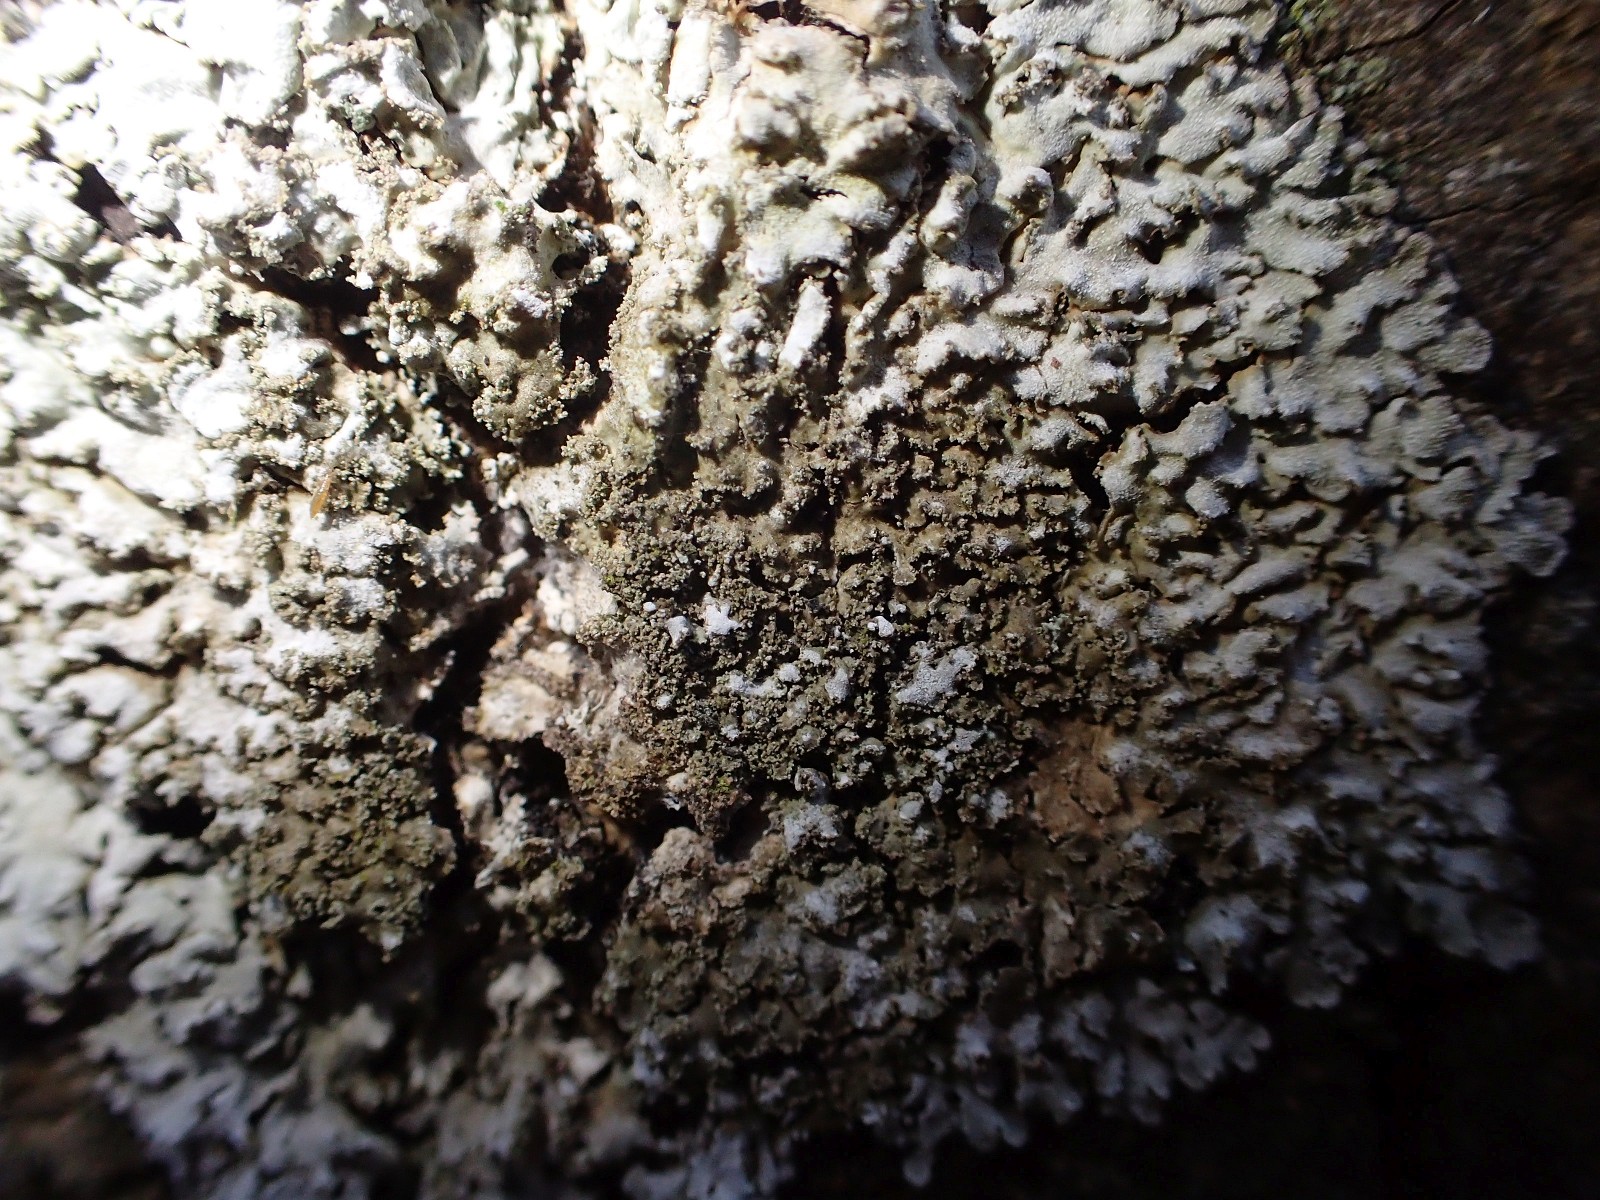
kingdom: Fungi
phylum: Ascomycota
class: Lecanoromycetes
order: Caliciales
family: Physciaceae
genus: Physconia
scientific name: Physconia
